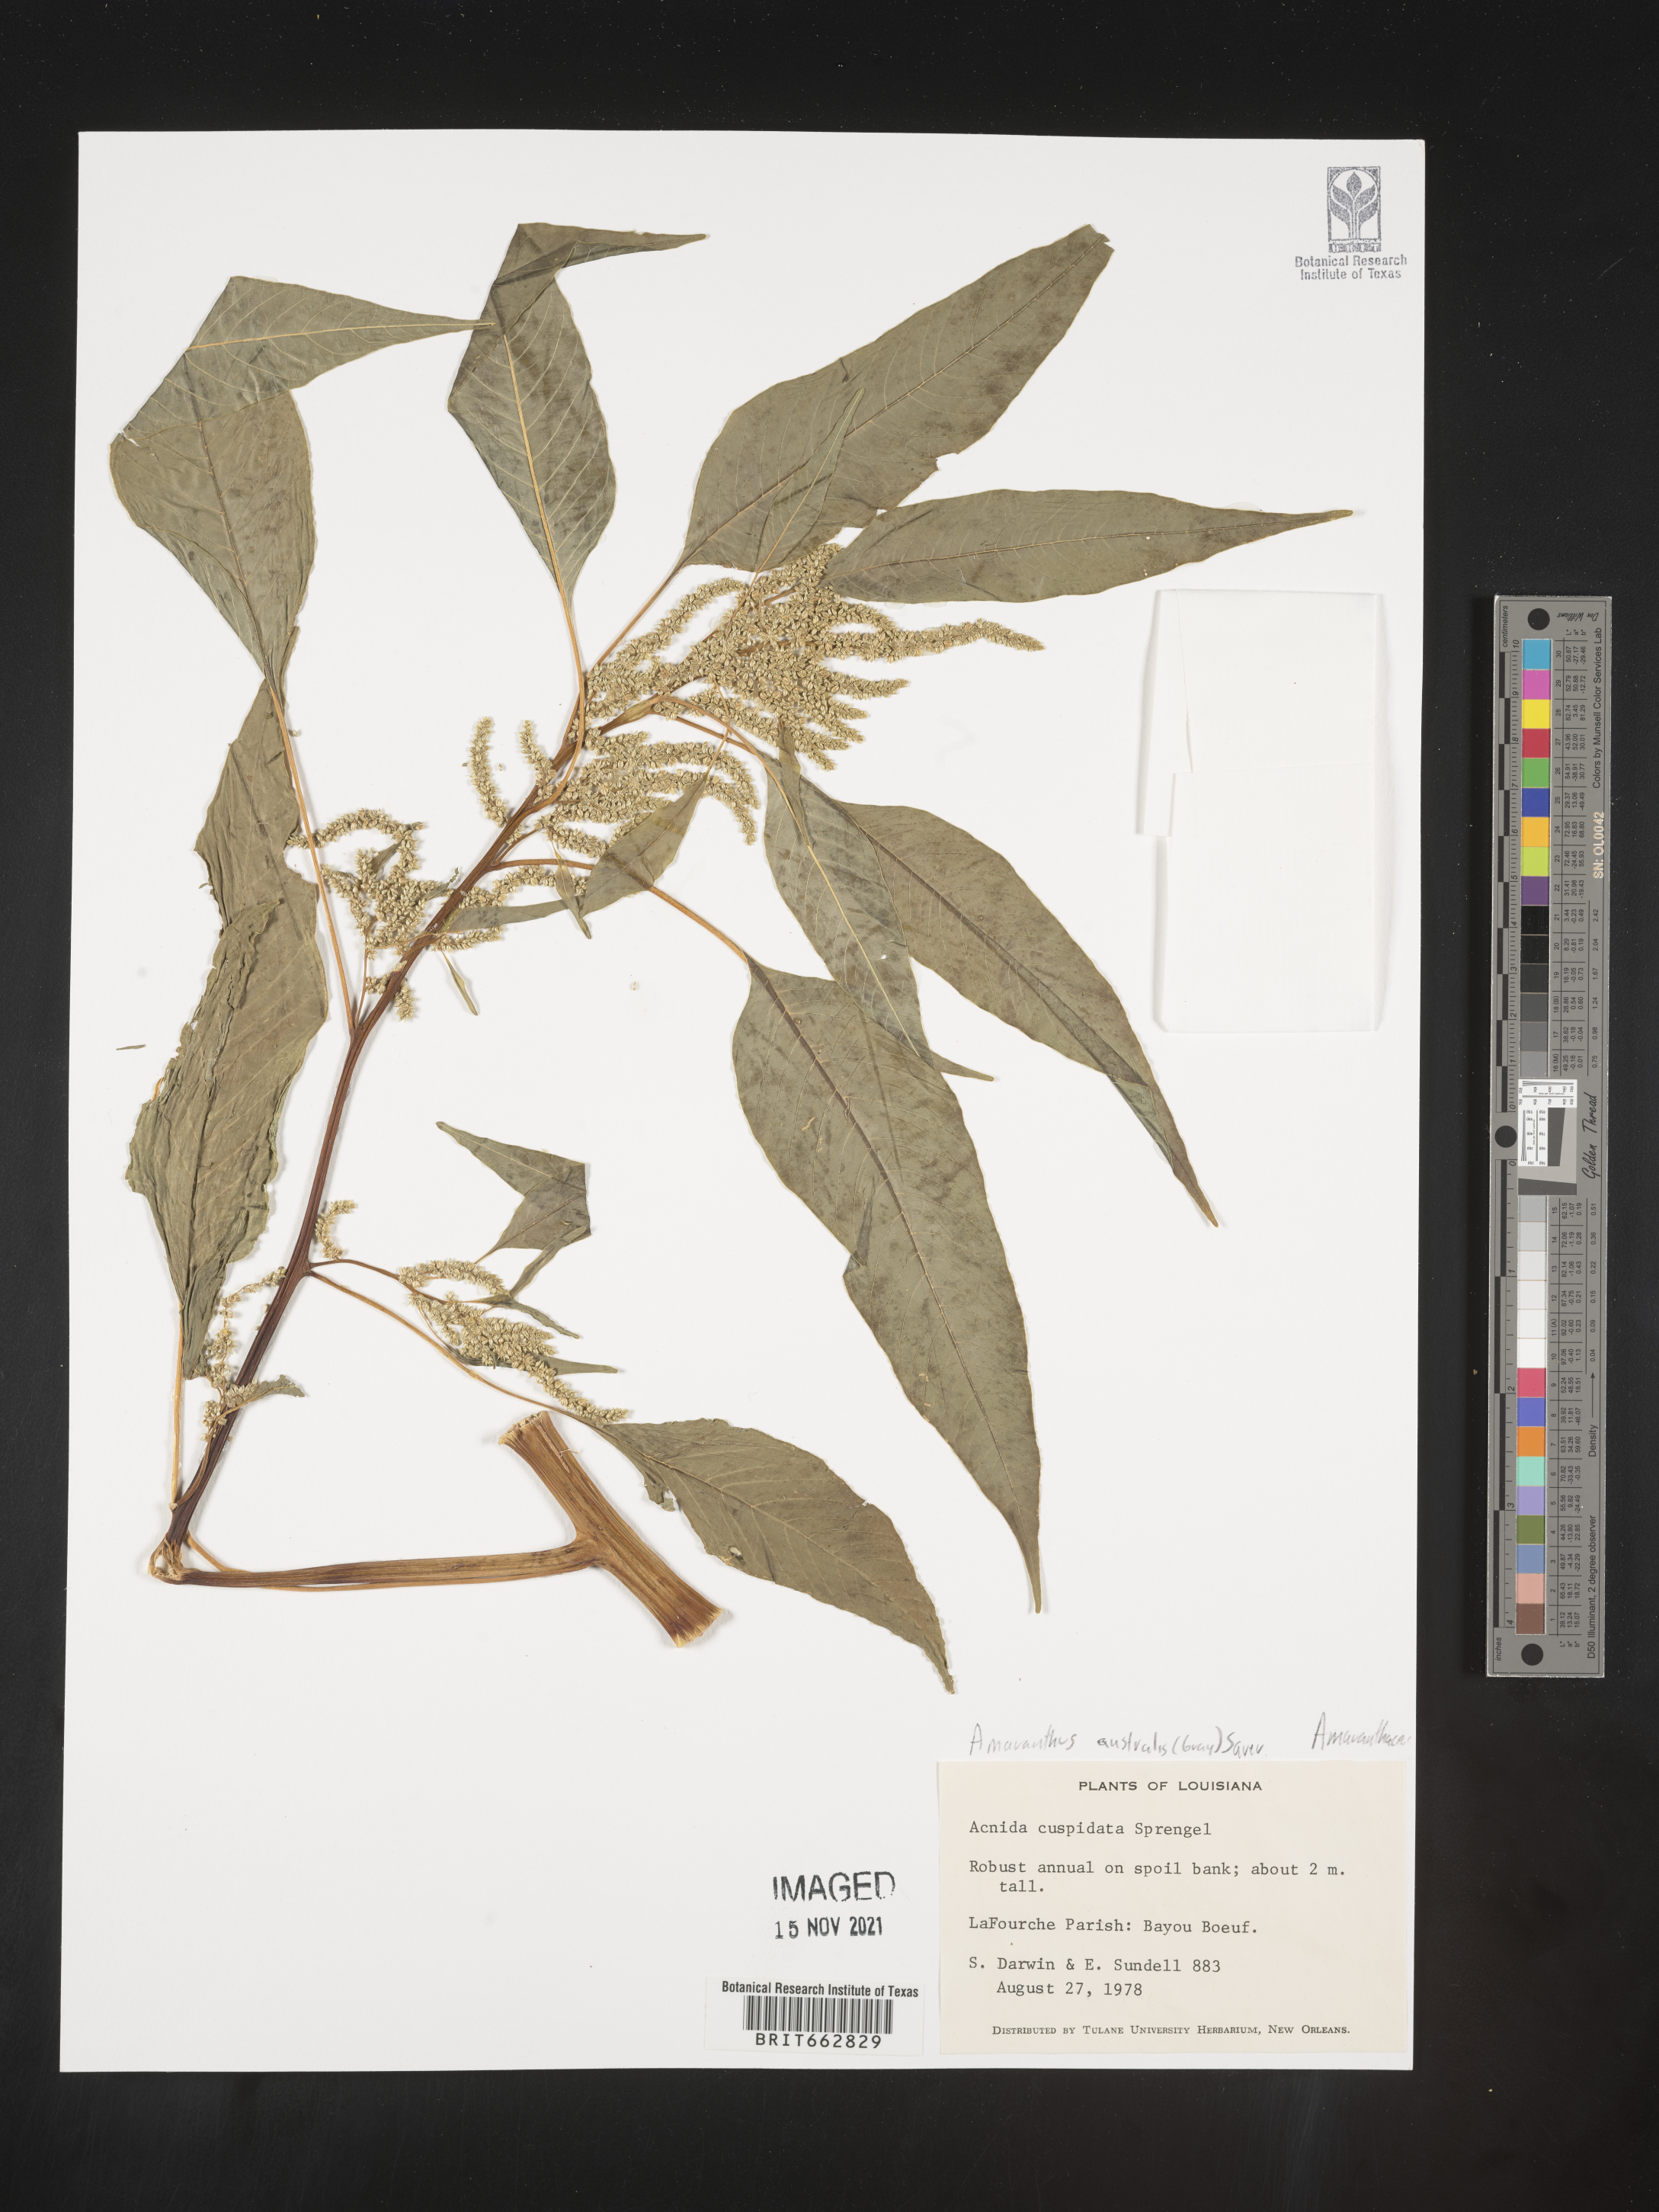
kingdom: Plantae
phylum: Tracheophyta
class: Magnoliopsida
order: Caryophyllales
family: Amaranthaceae
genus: Amaranthus
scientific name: Amaranthus australis
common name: Southern amaranth
